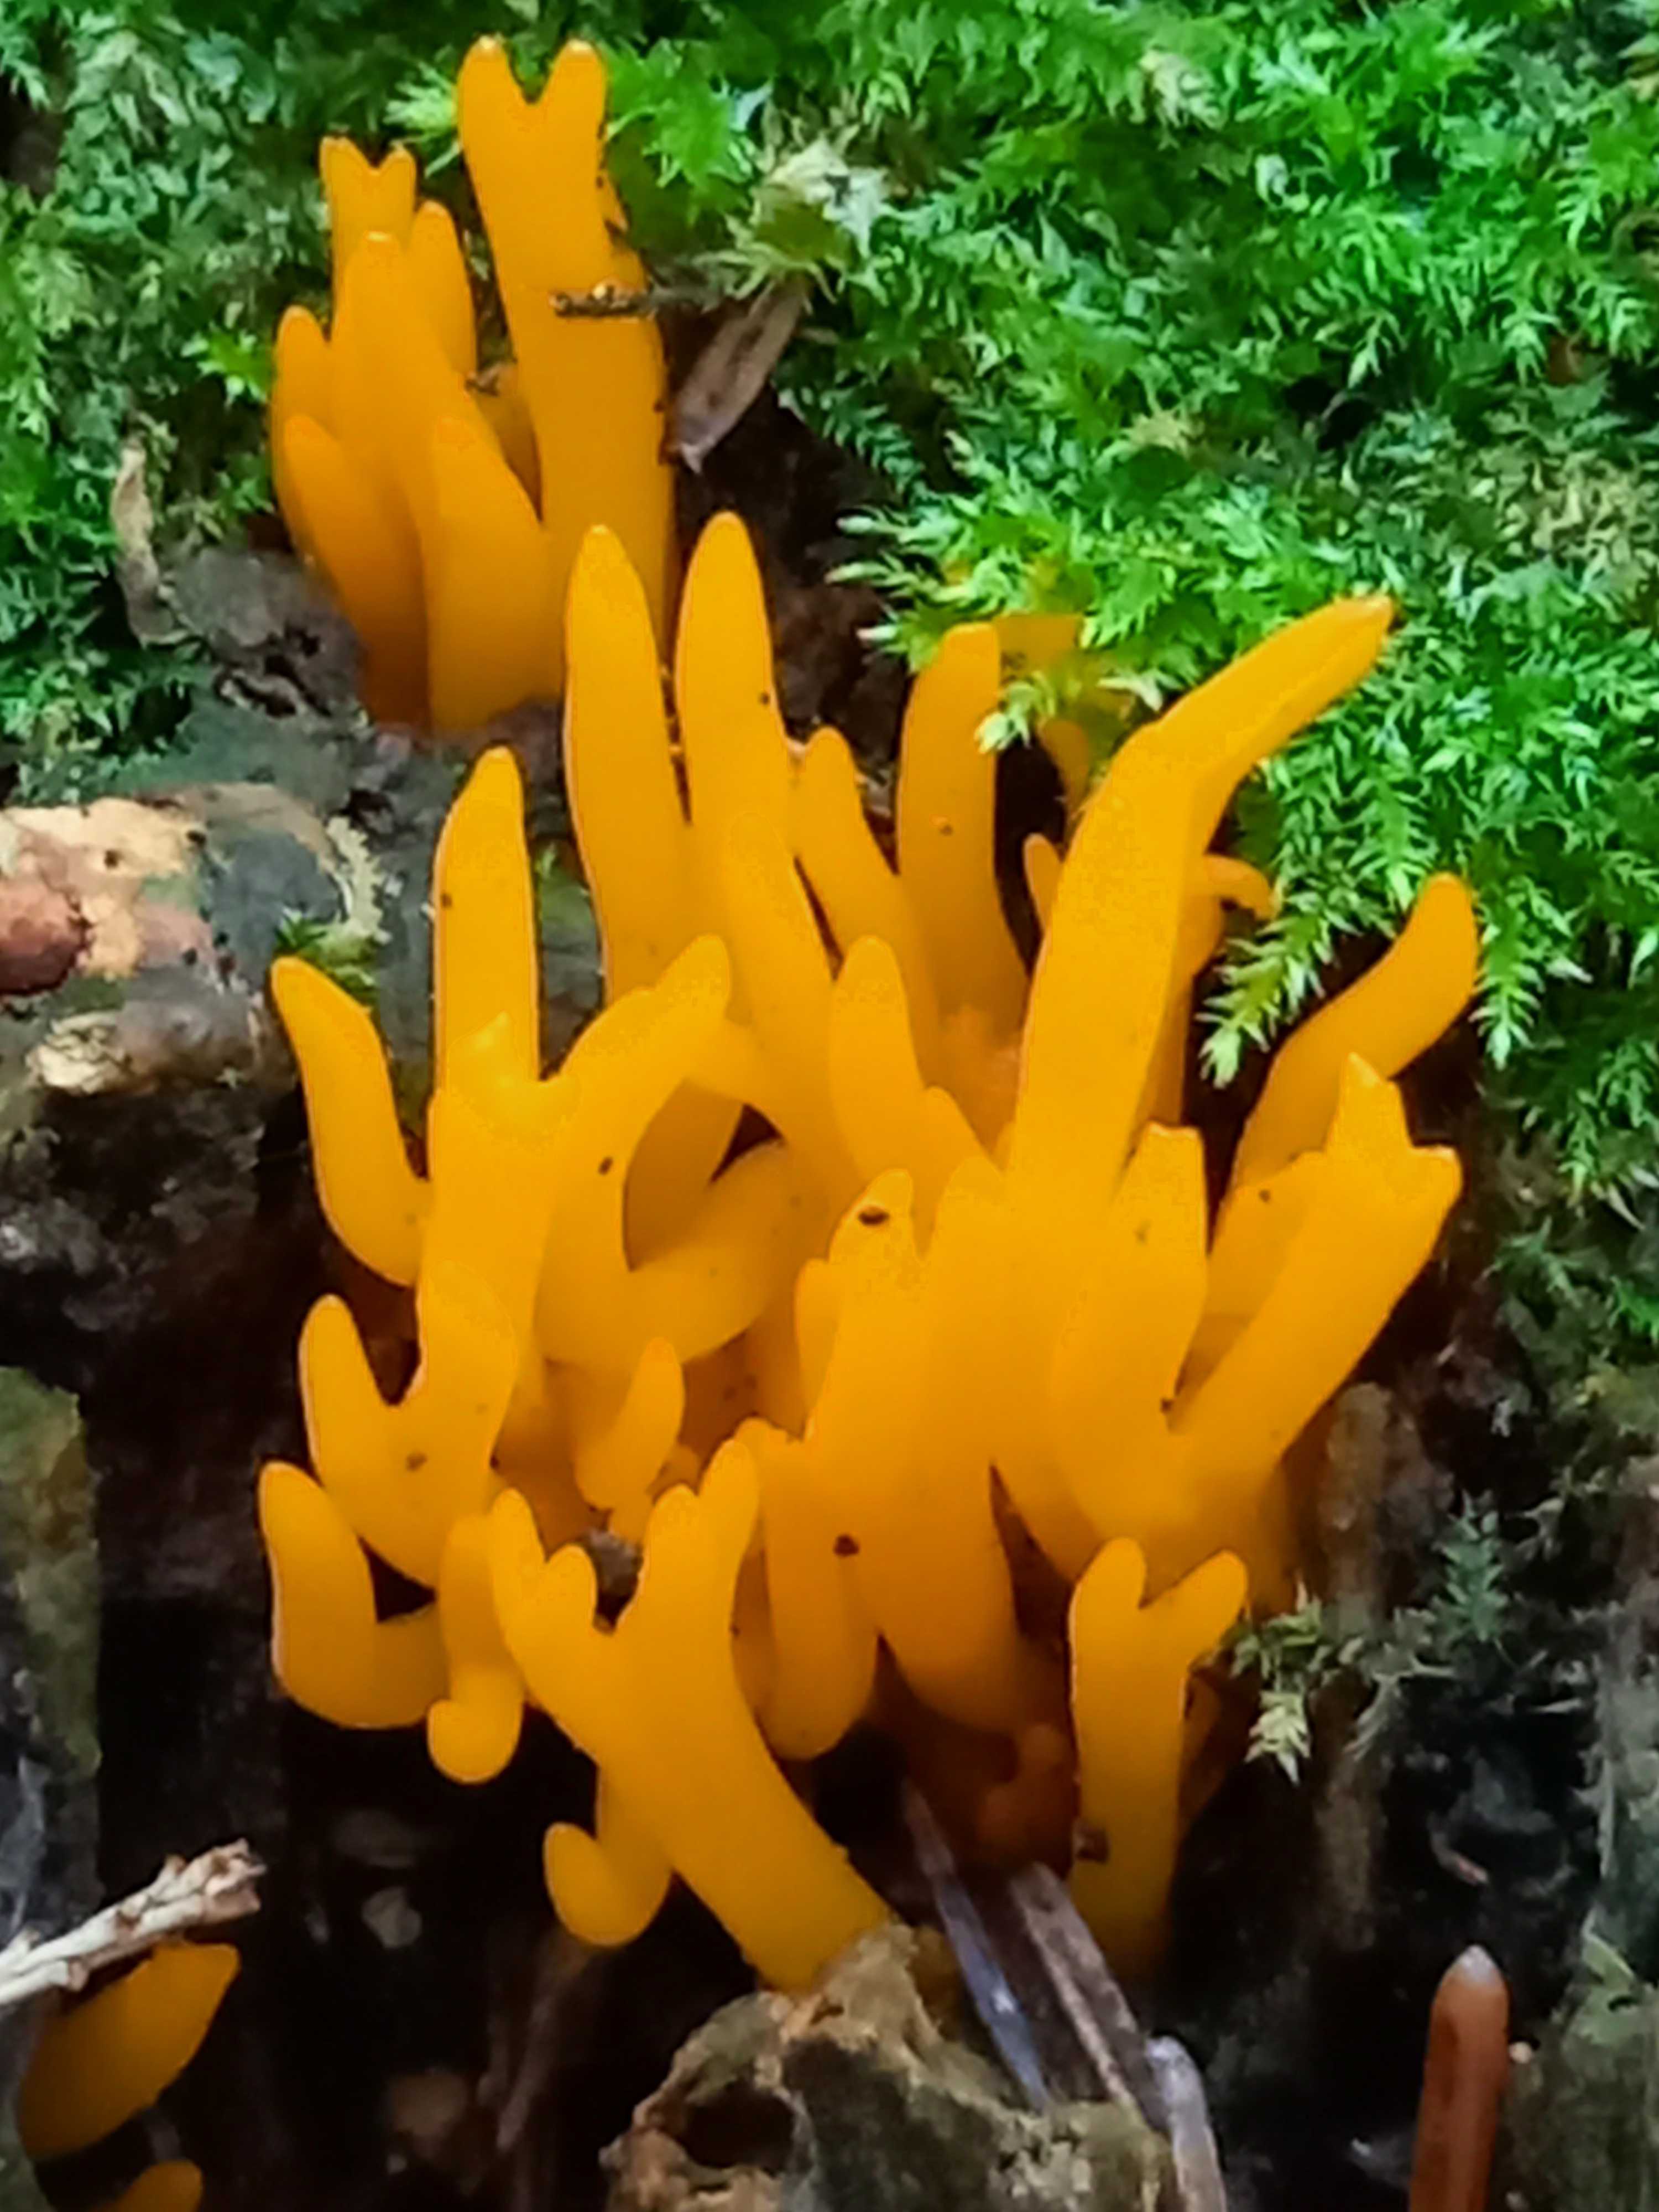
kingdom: Fungi
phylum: Basidiomycota
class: Dacrymycetes
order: Dacrymycetales
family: Dacrymycetaceae
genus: Calocera
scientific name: Calocera viscosa
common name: almindelig guldgaffel
